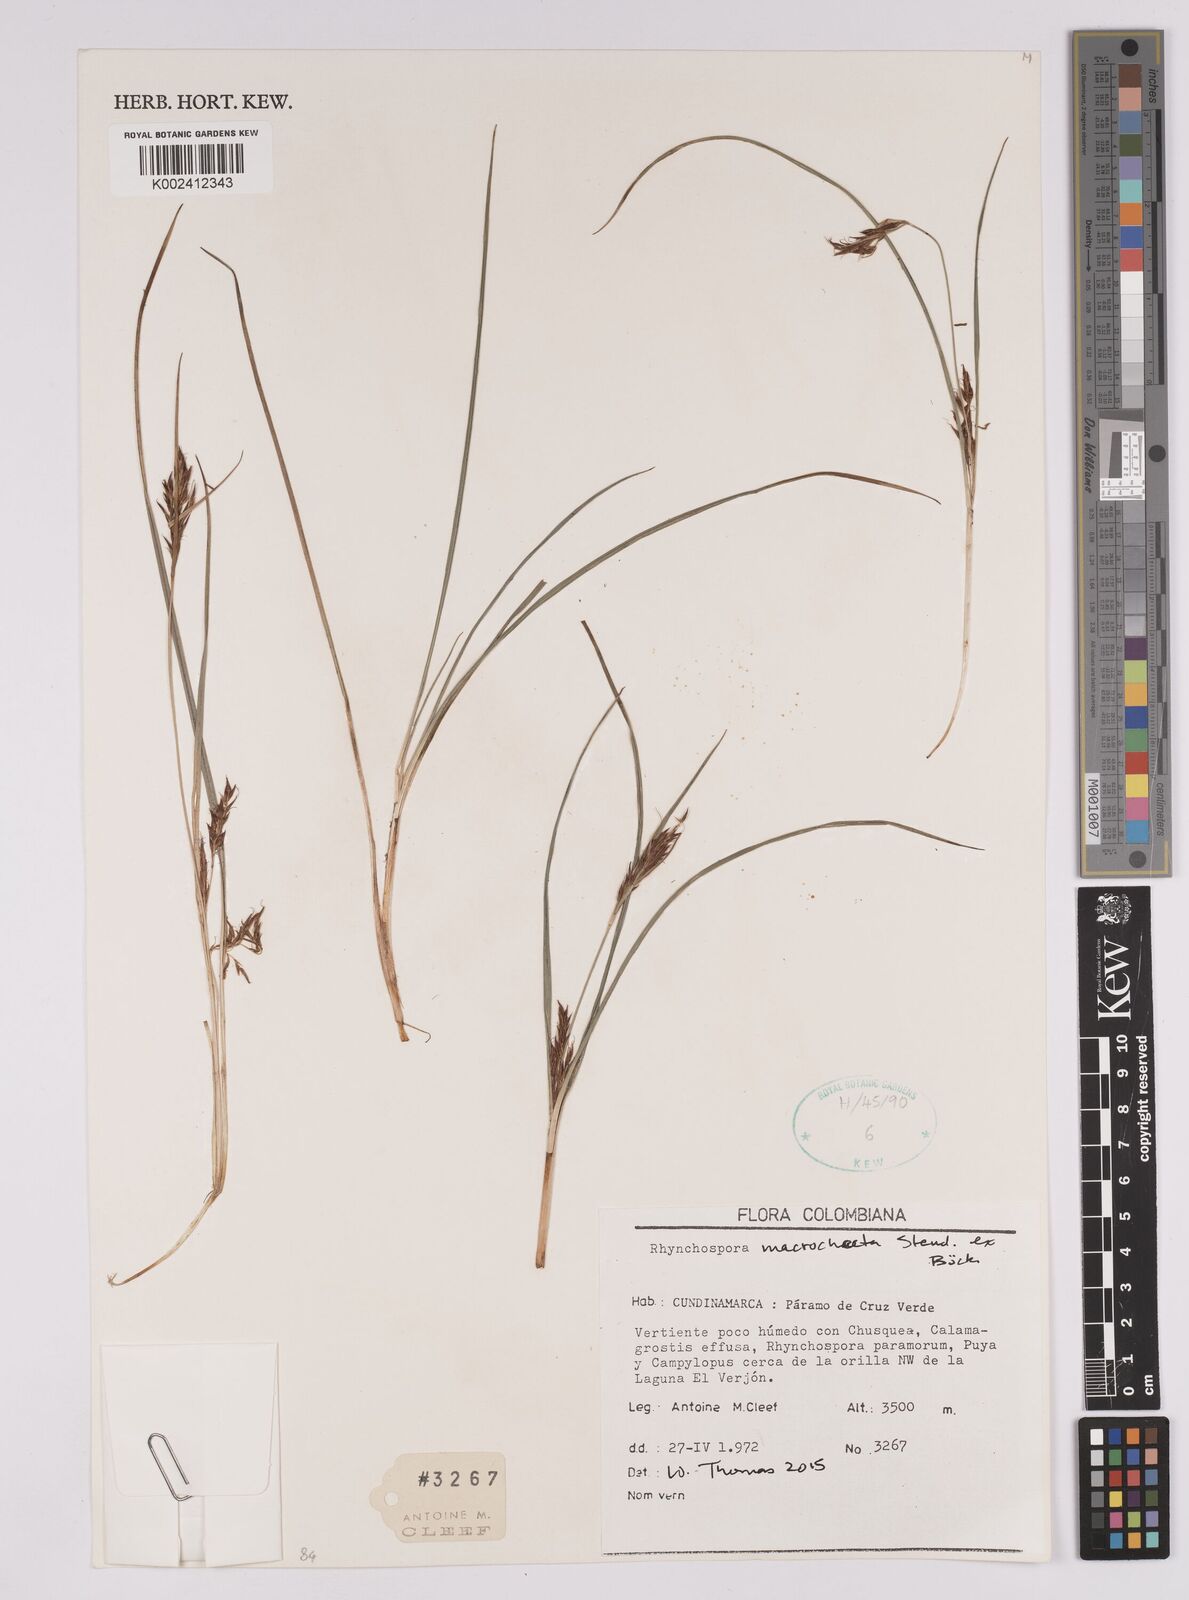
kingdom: Plantae
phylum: Tracheophyta
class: Liliopsida
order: Poales
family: Cyperaceae
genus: Rhynchospora
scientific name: Rhynchospora macrochaeta
